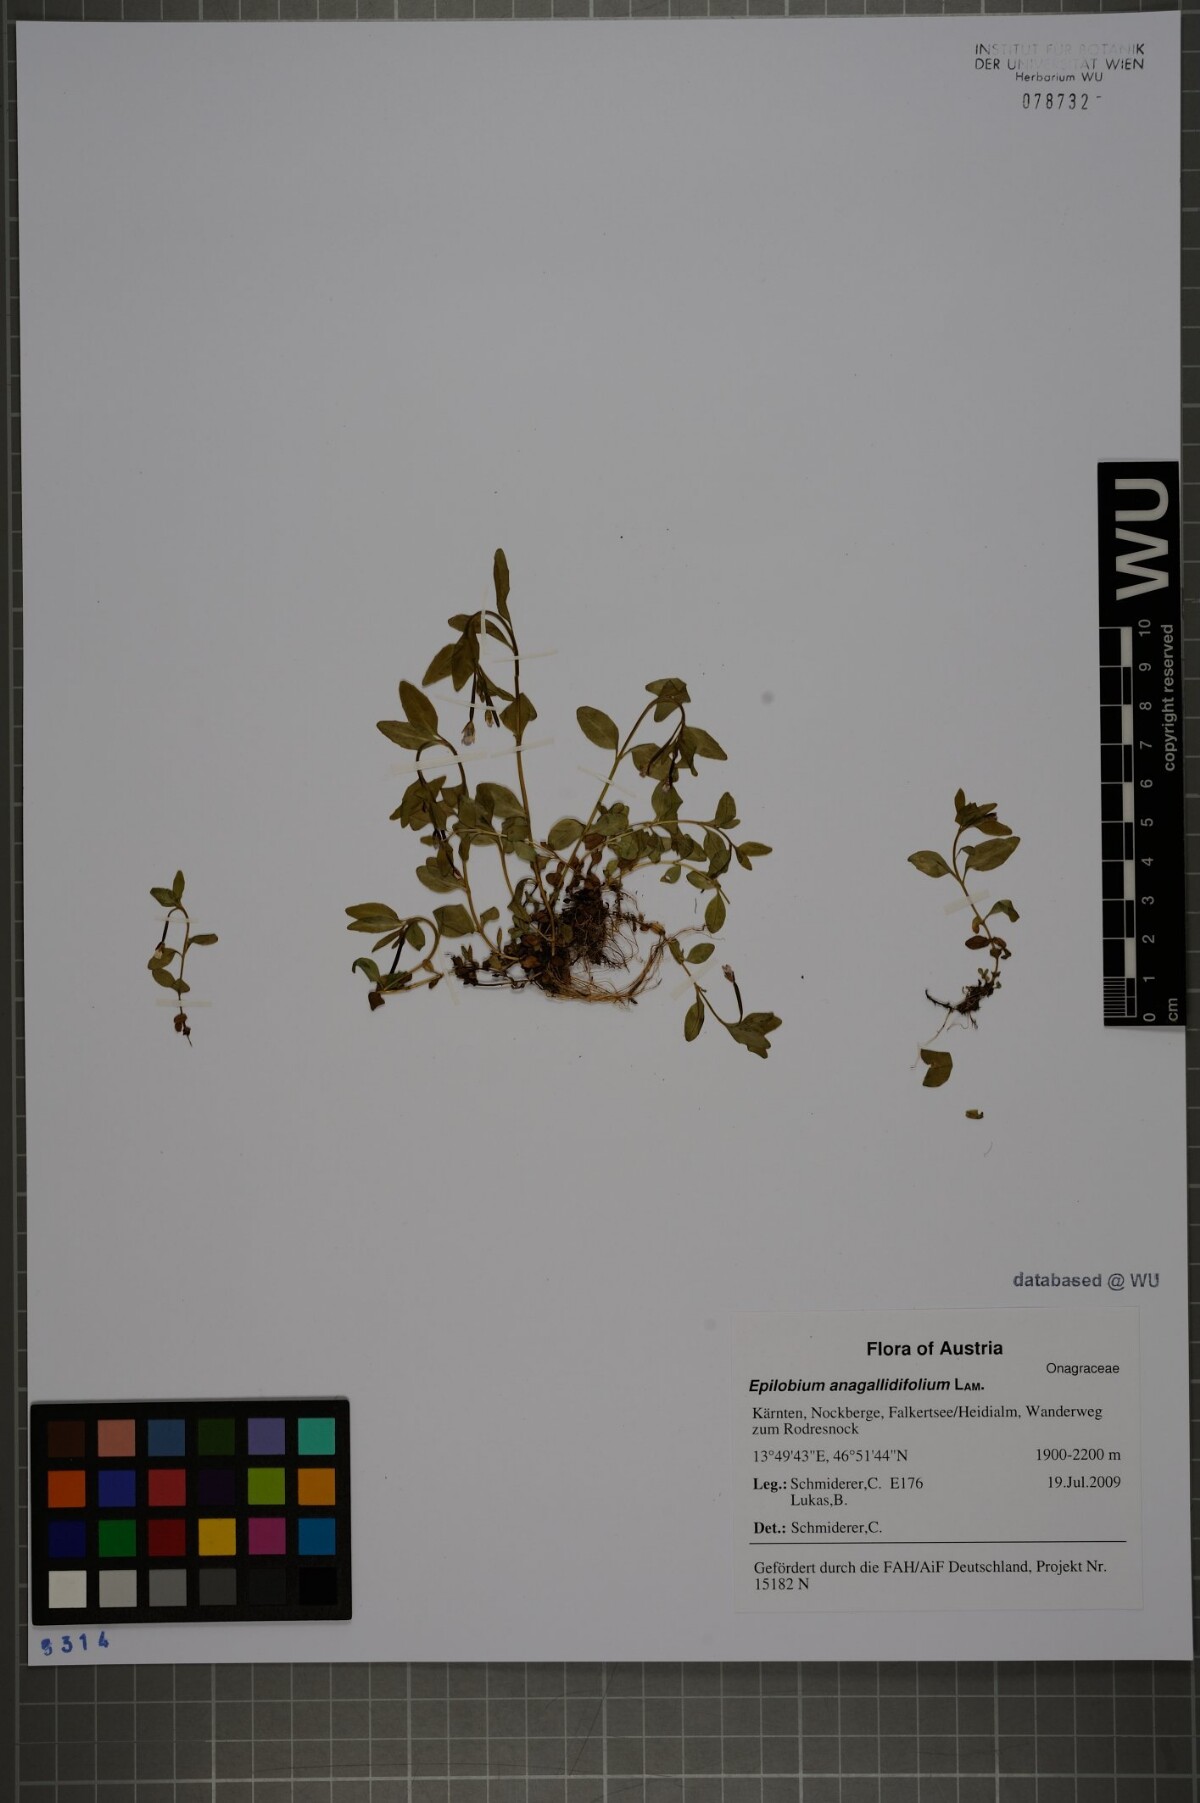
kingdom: Plantae
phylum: Tracheophyta
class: Magnoliopsida
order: Myrtales
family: Onagraceae
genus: Epilobium
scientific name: Epilobium anagallidifolium
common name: Alpine willowherb
